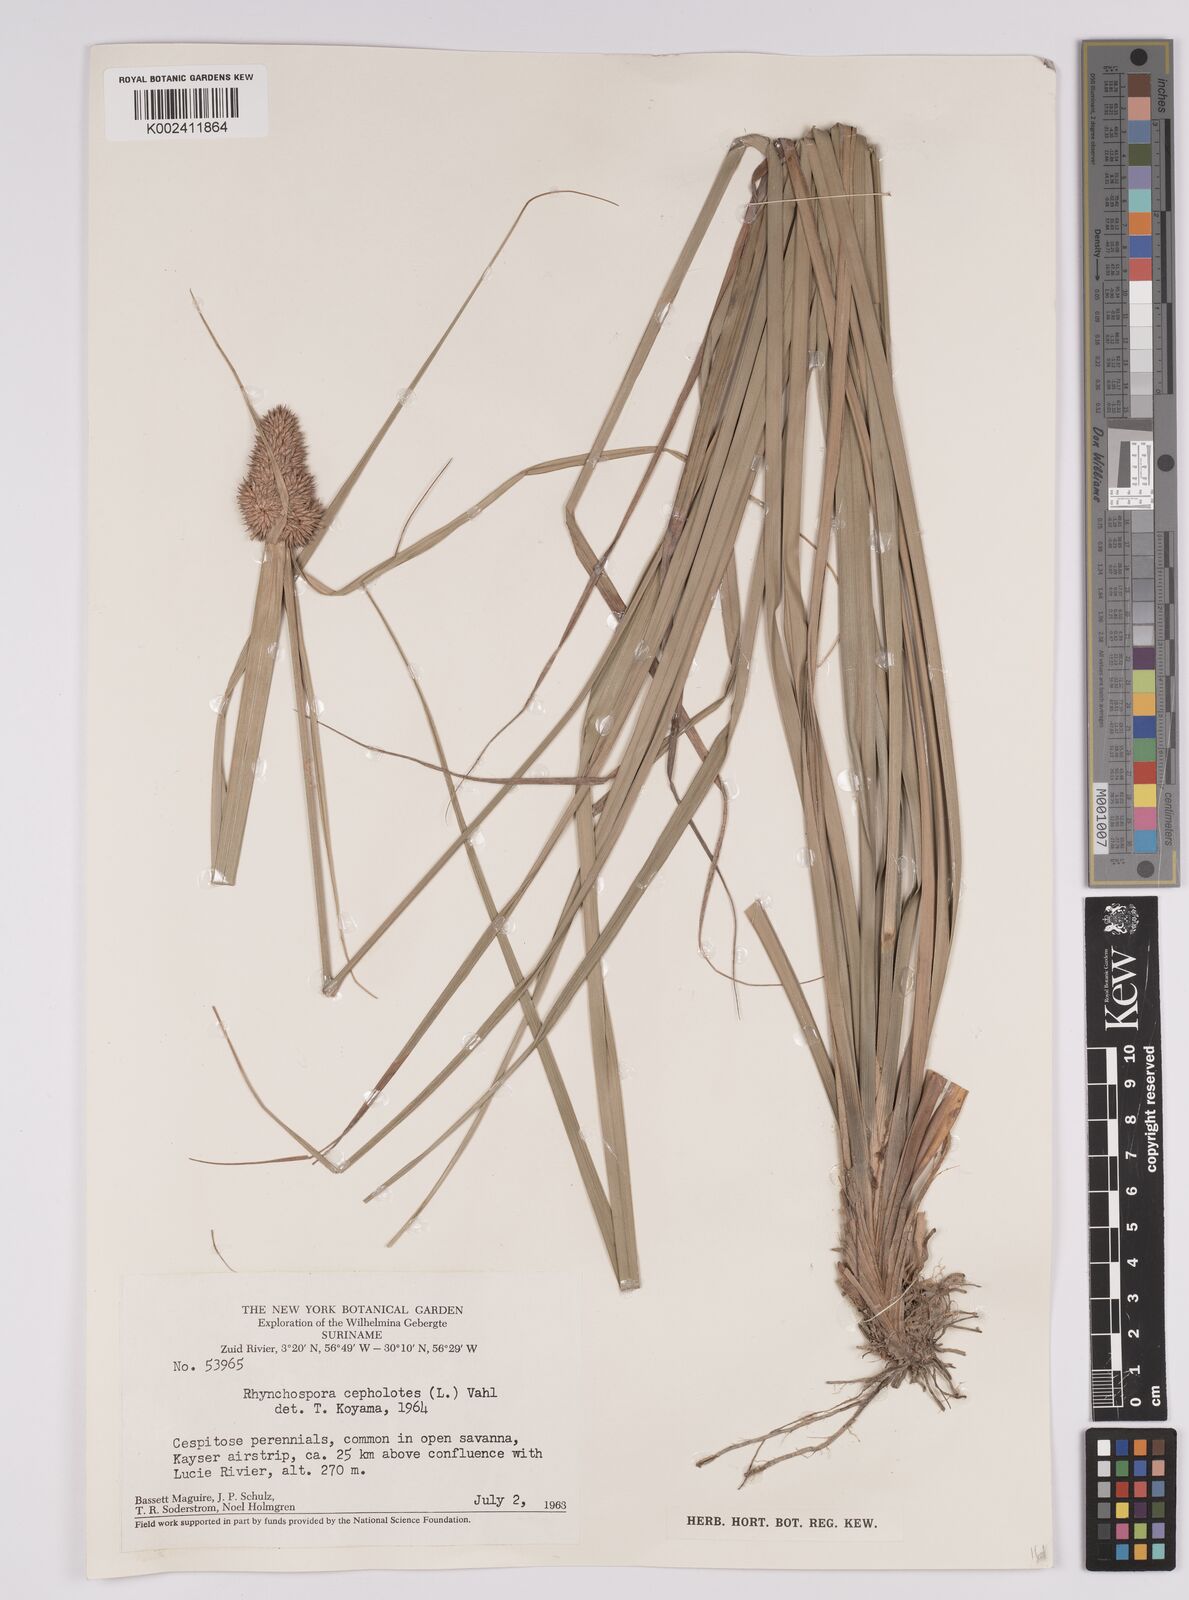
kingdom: Plantae
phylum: Tracheophyta
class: Liliopsida
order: Poales
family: Cyperaceae
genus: Rhynchospora
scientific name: Rhynchospora cephalotes
